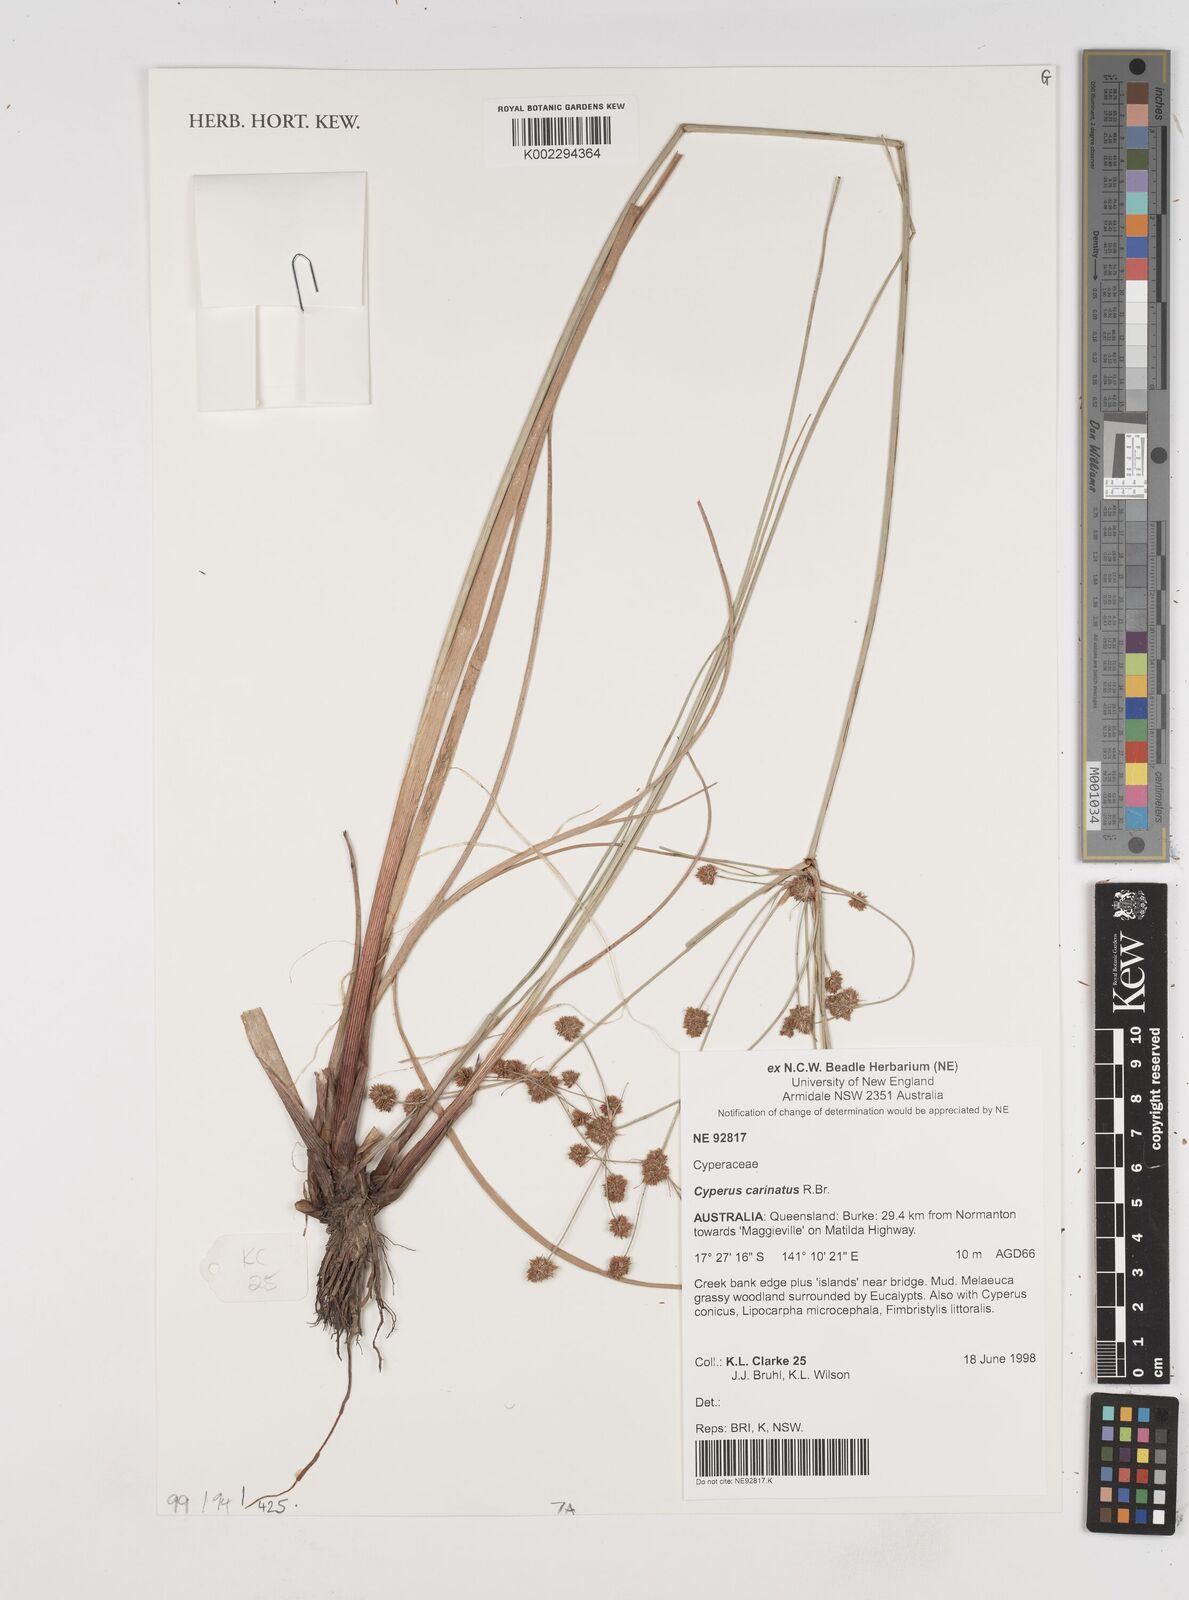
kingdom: Plantae
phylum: Tracheophyta
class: Liliopsida
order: Poales
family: Cyperaceae
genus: Cyperus
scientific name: Cyperus carinatus
